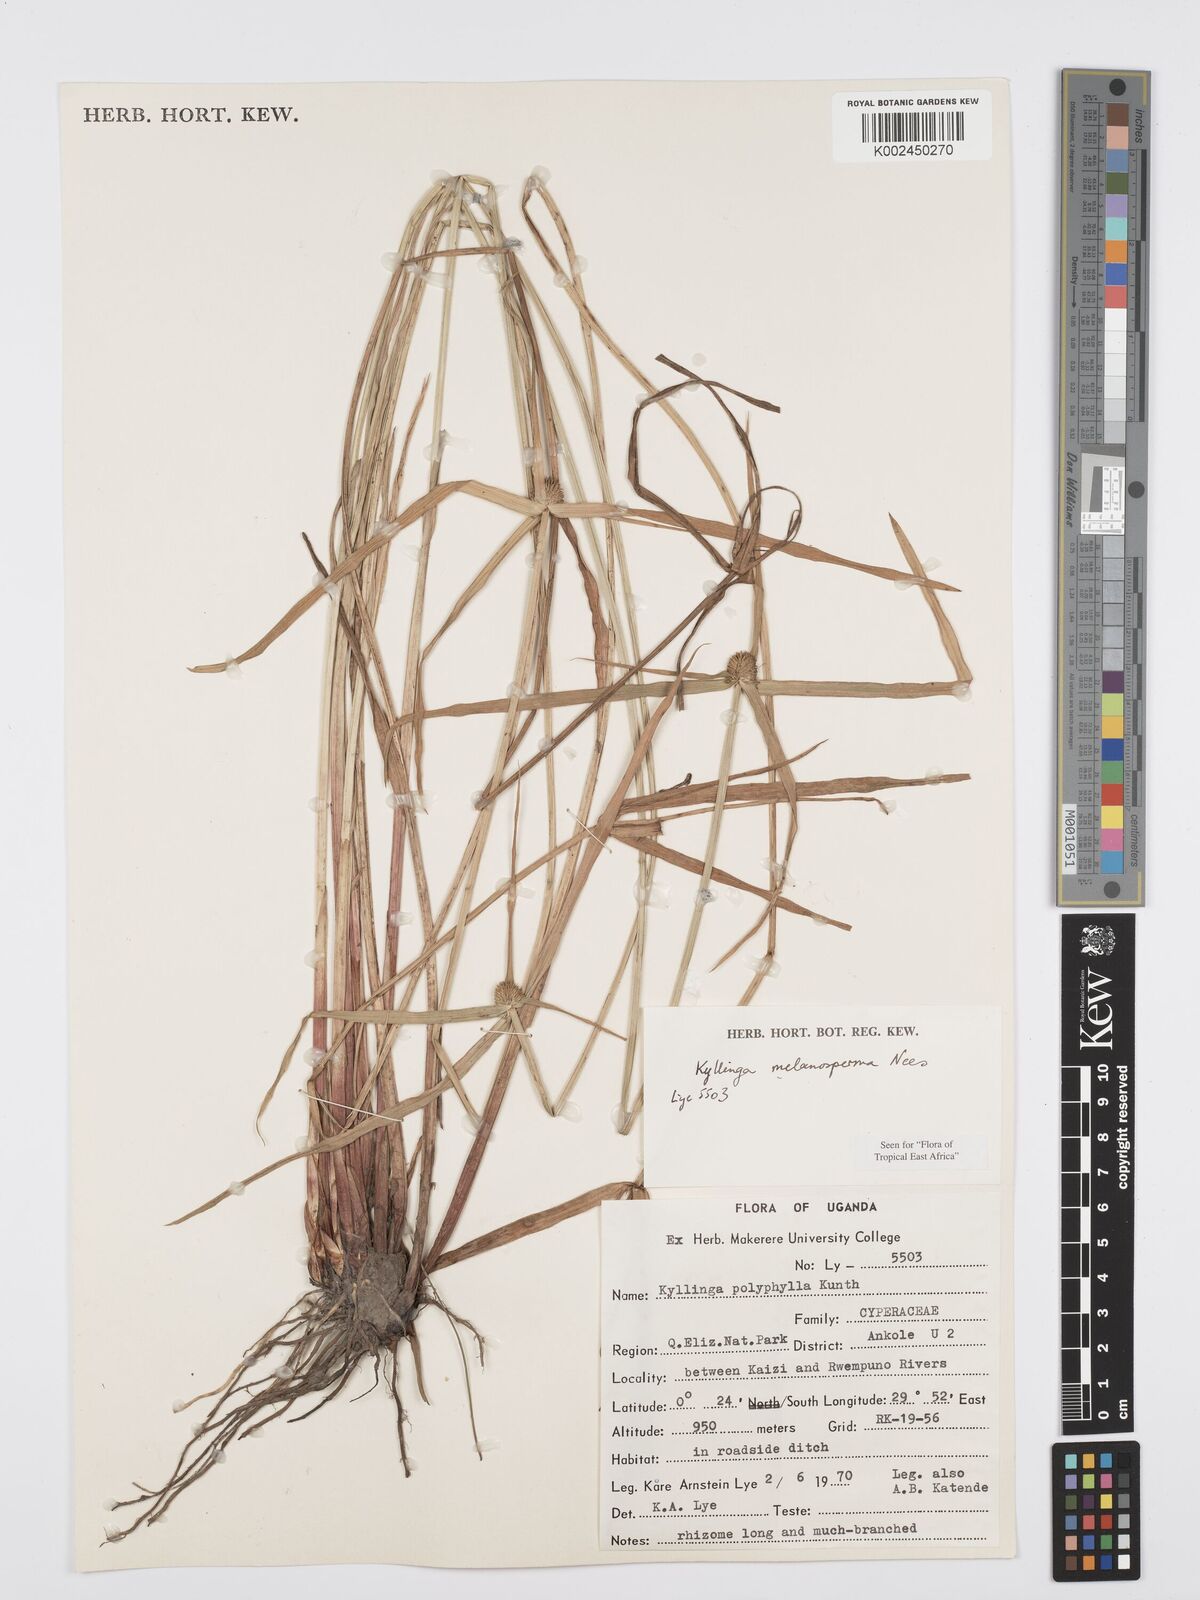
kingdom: Plantae
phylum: Tracheophyta
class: Liliopsida
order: Poales
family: Cyperaceae
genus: Cyperus
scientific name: Cyperus
